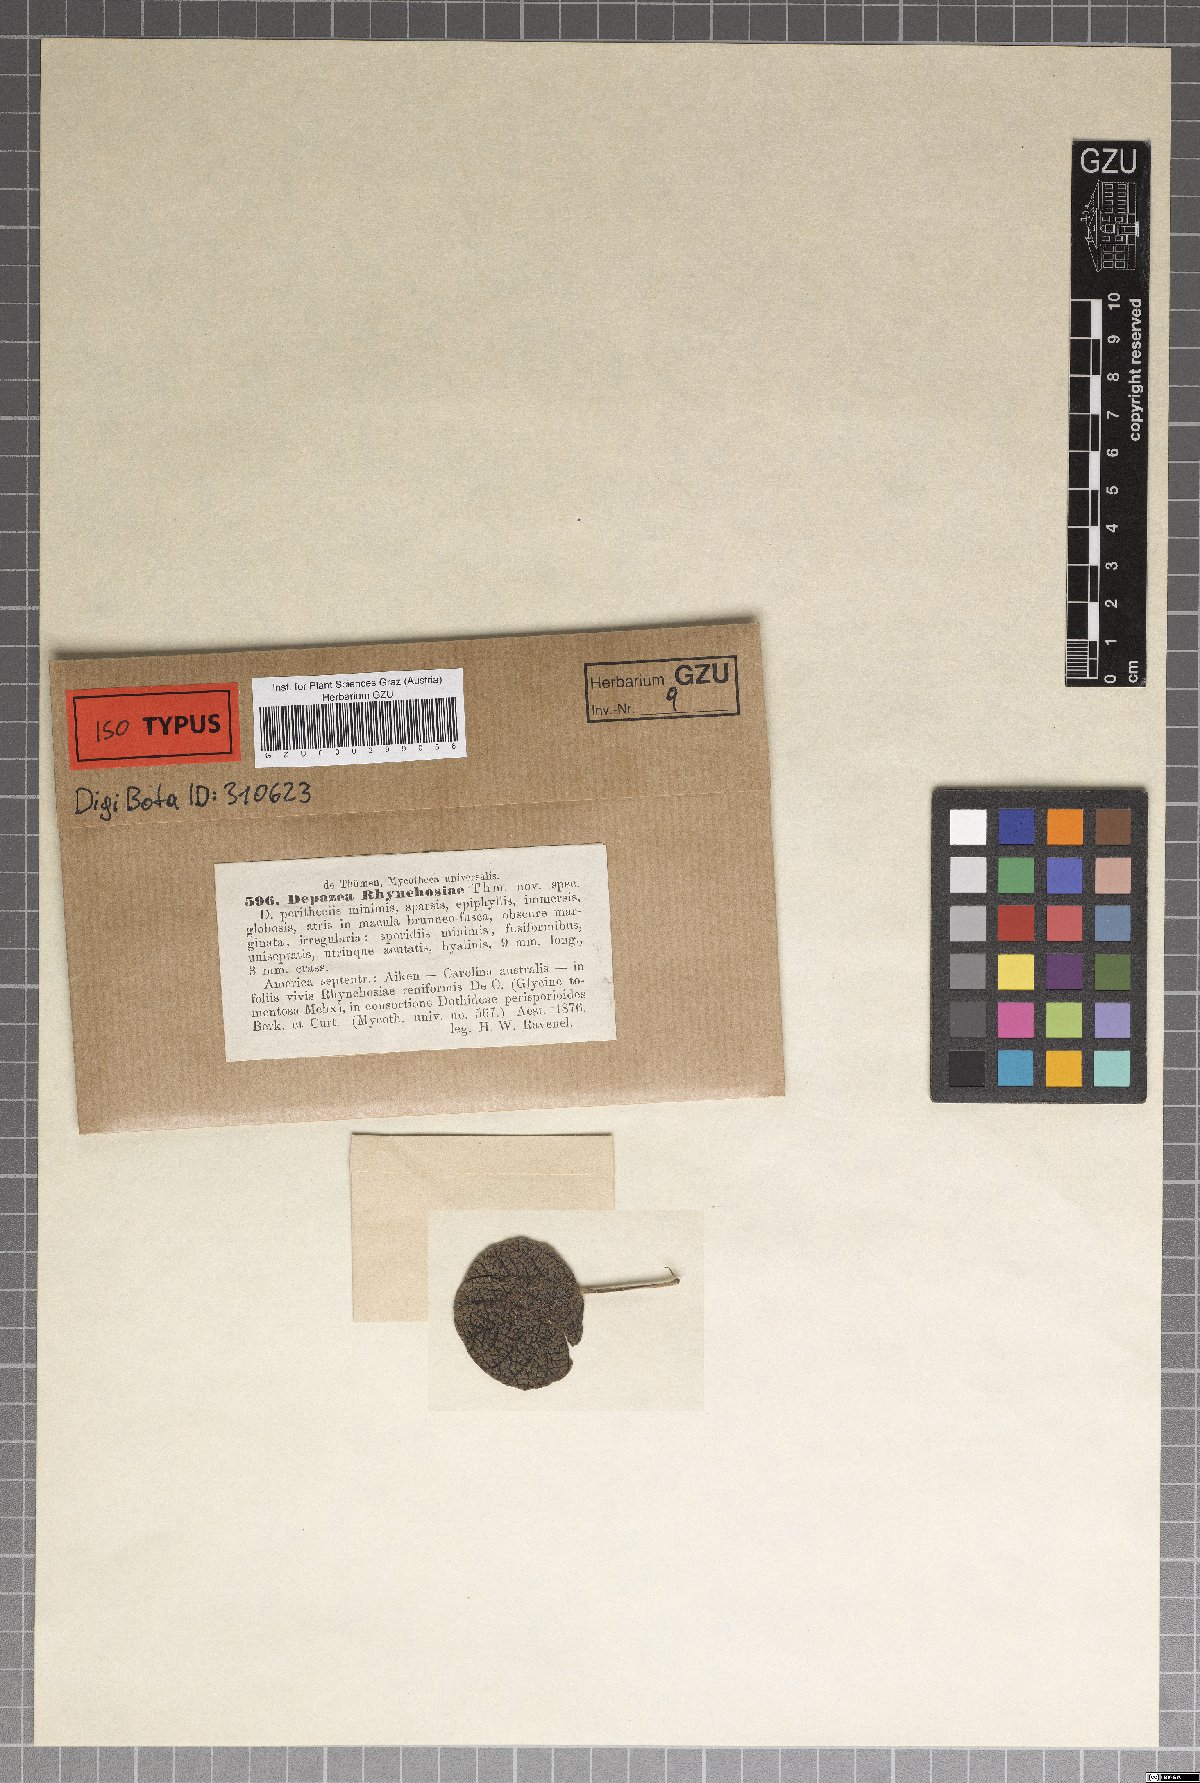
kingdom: Fungi
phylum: Ascomycota
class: Sordariomycetes
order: Diaporthales
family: Gnomoniaceae
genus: Depazea
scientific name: Depazea
